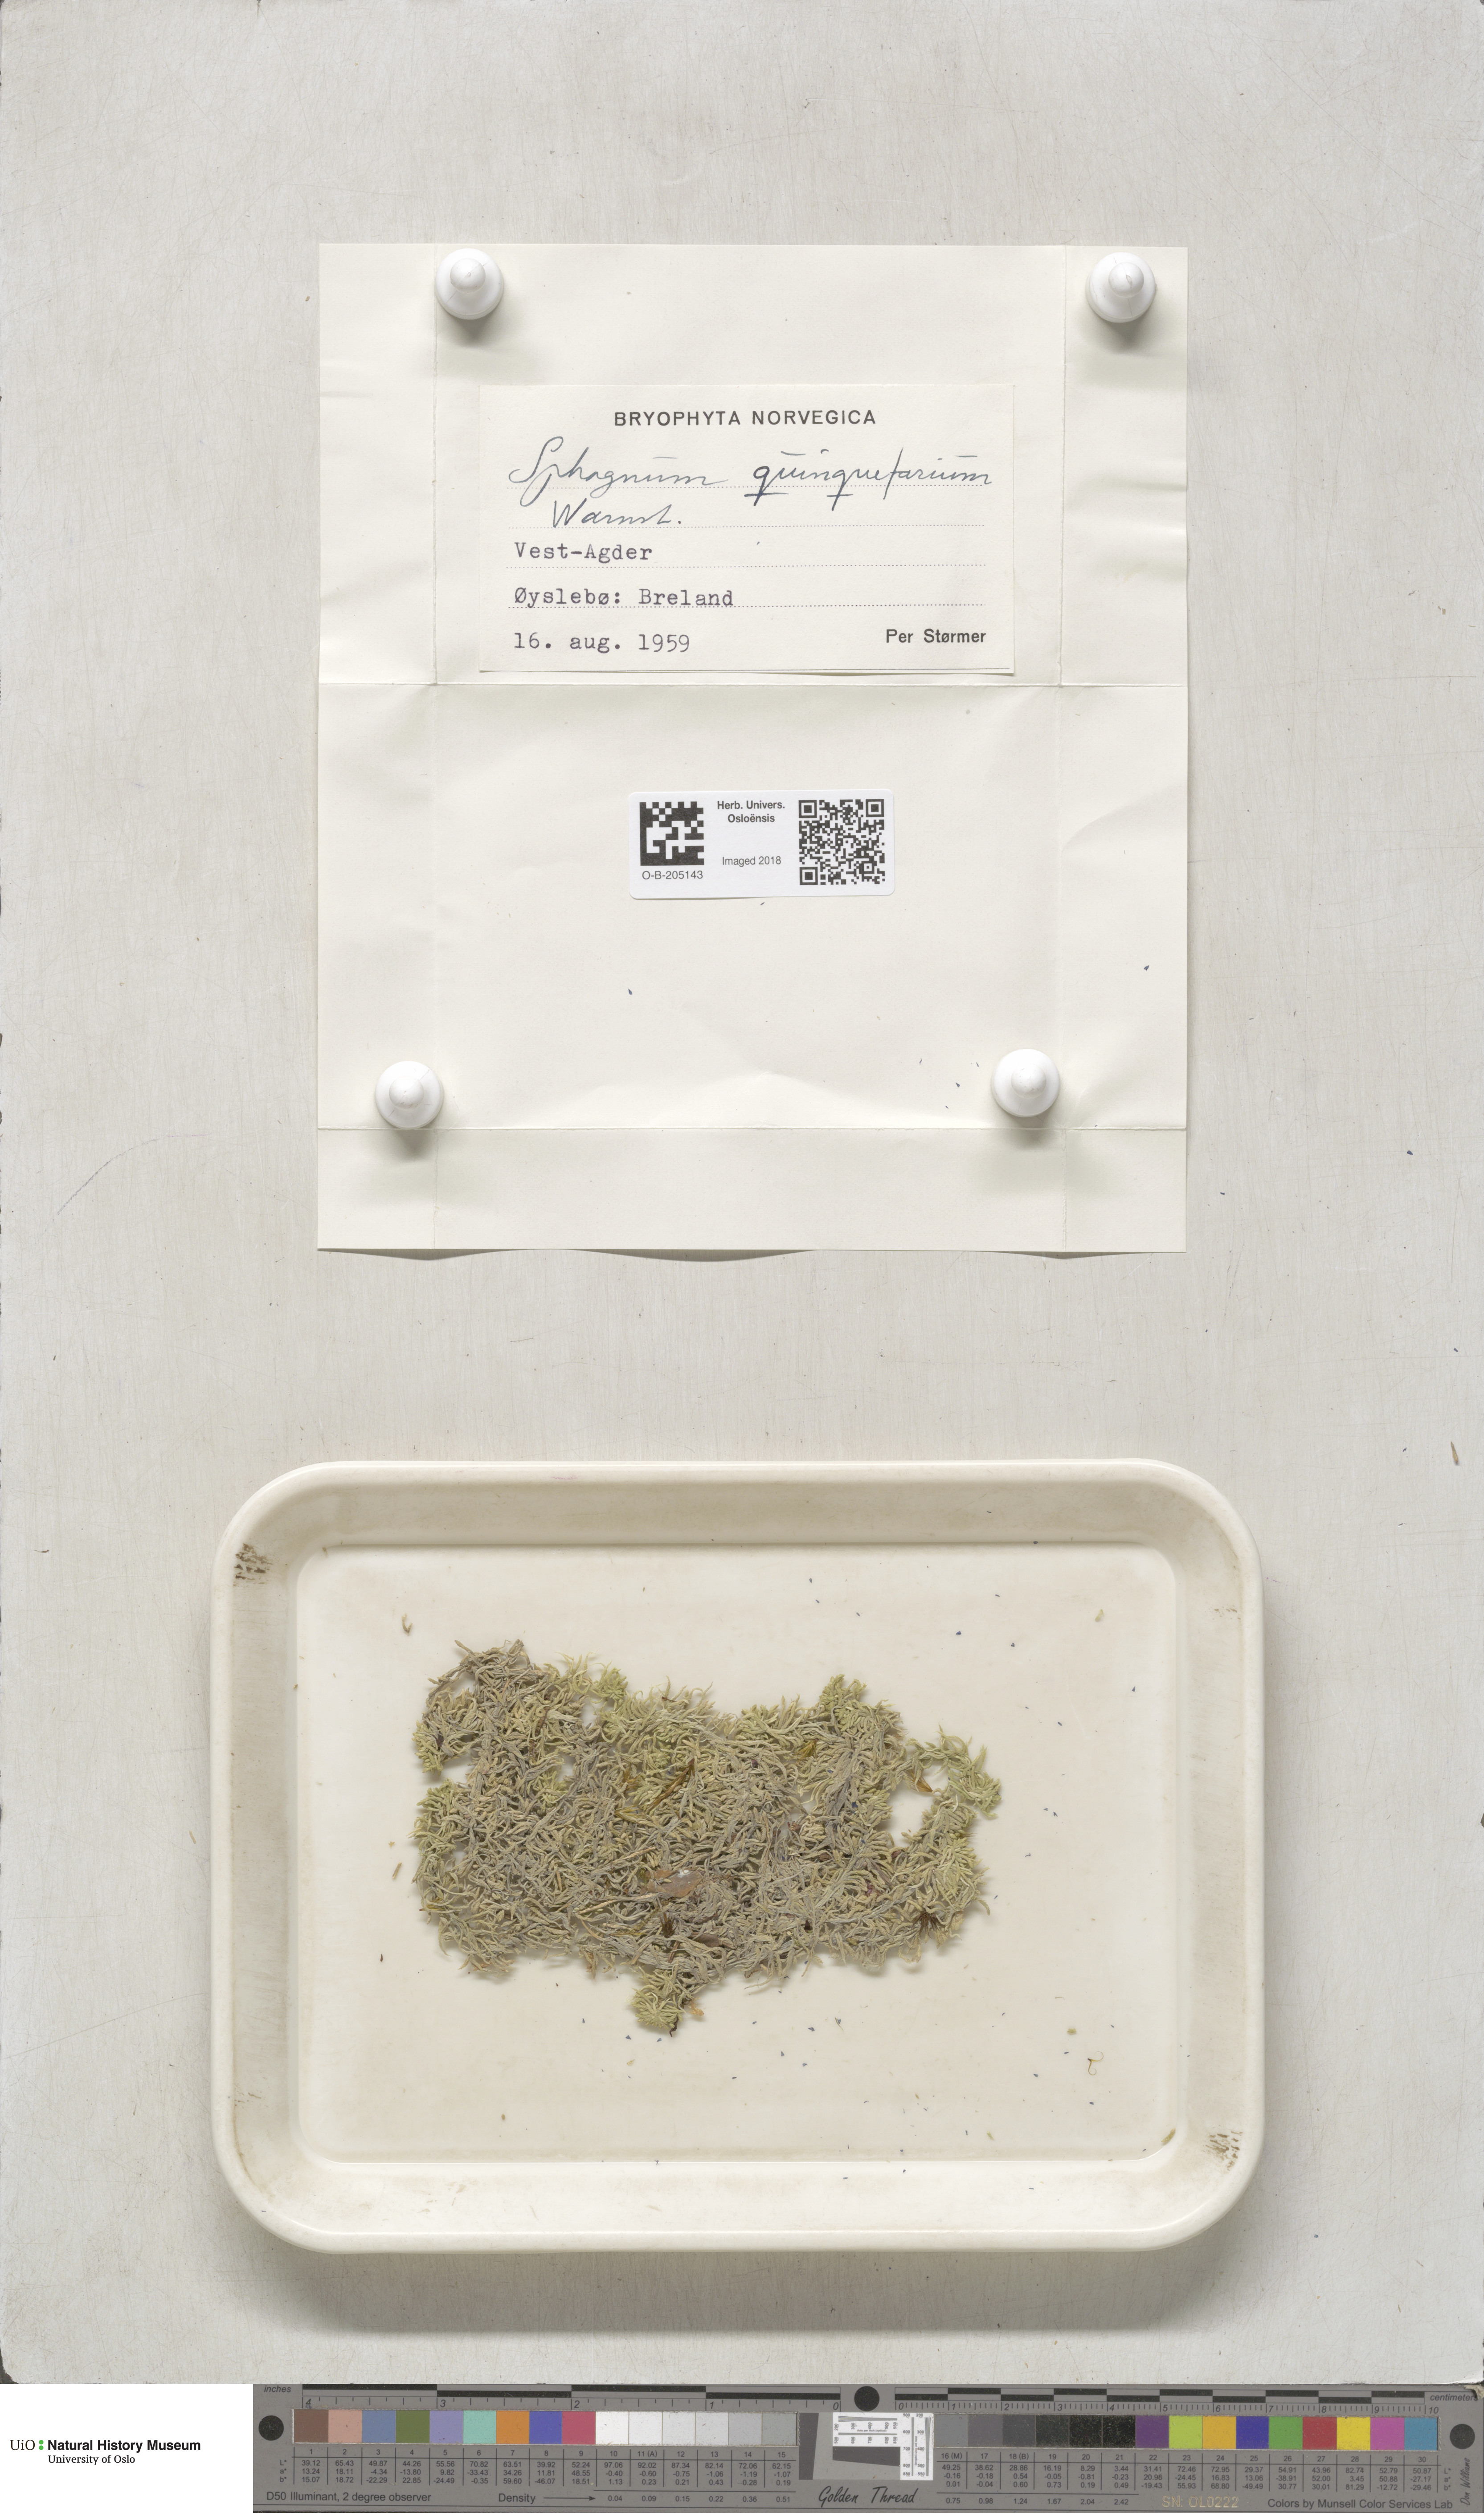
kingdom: Plantae
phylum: Bryophyta
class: Sphagnopsida
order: Sphagnales
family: Sphagnaceae
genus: Sphagnum
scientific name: Sphagnum quinquefarium
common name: Five-ranked peat moss
